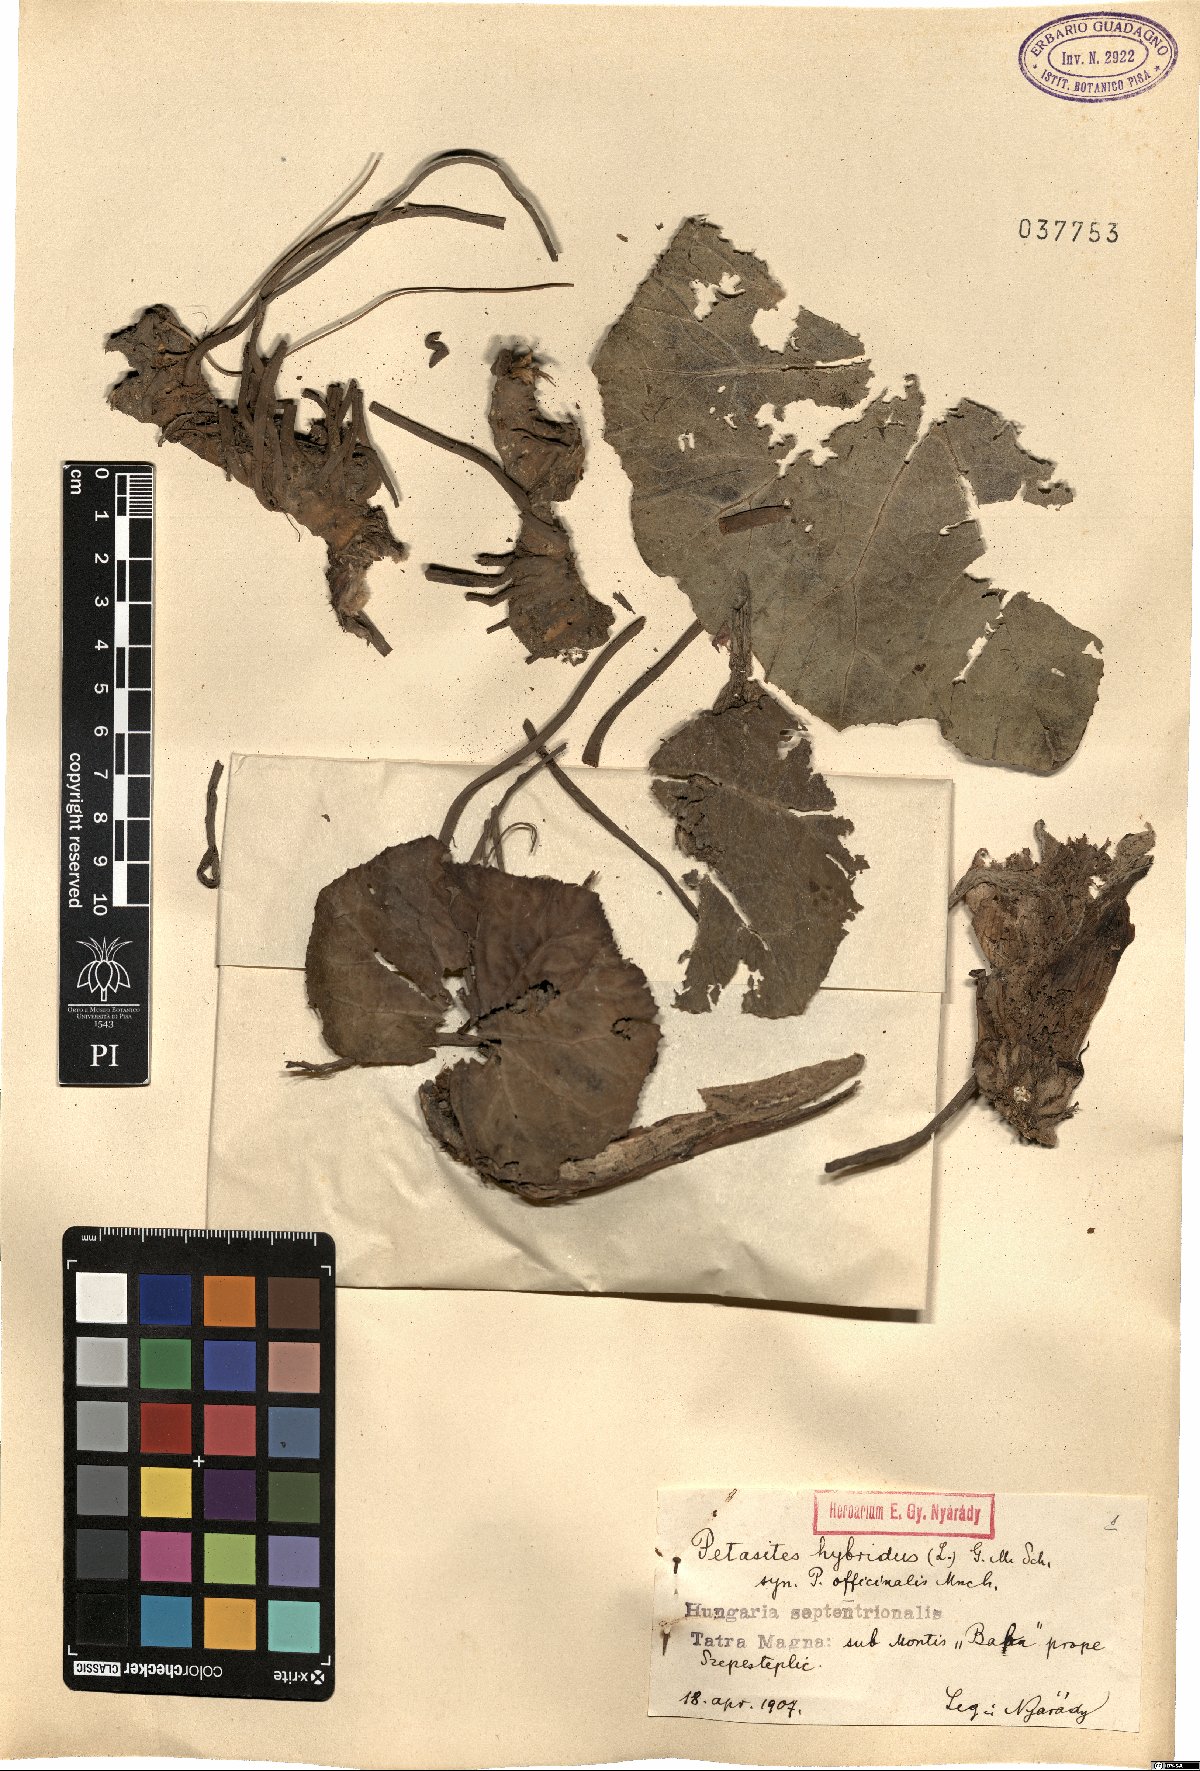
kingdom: Plantae
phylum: Tracheophyta
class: Magnoliopsida
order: Asterales
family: Asteraceae
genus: Petasites
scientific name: Petasites hybridus
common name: Butterbur
